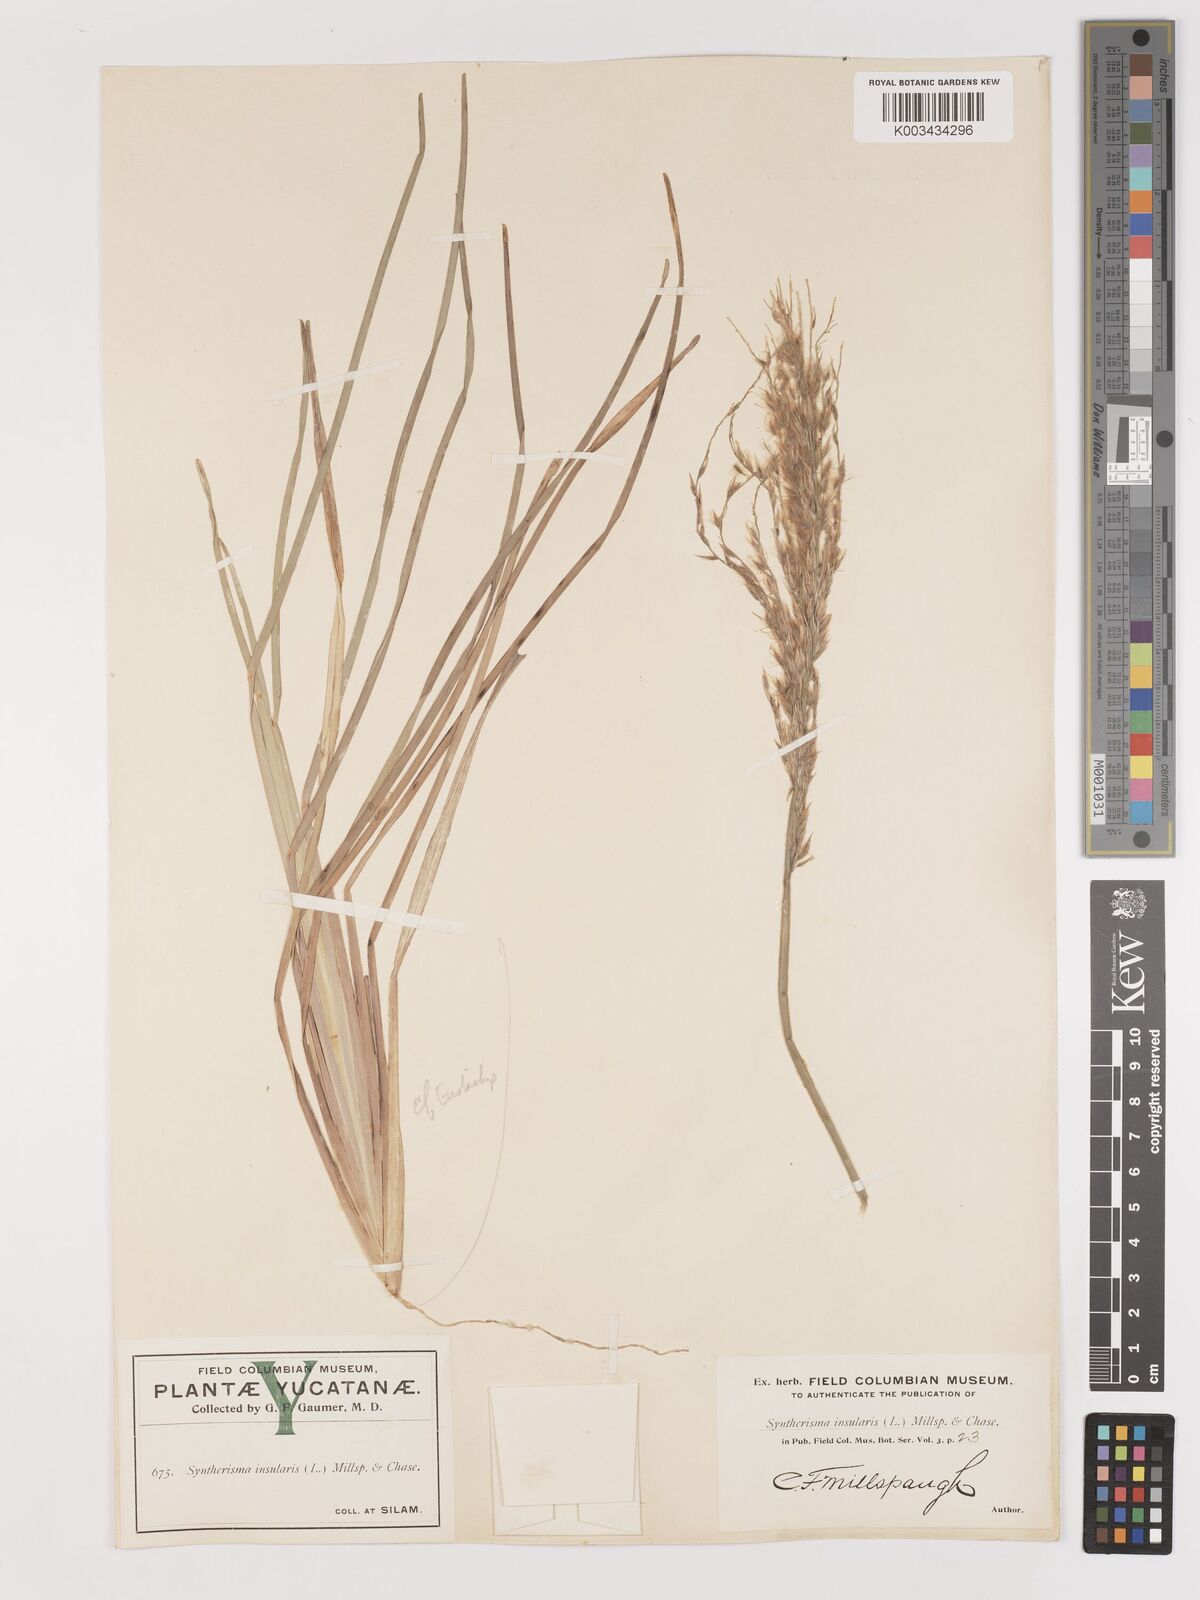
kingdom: Plantae
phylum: Tracheophyta
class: Liliopsida
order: Poales
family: Poaceae
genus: Digitaria
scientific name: Digitaria insularis
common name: Sourgrass
